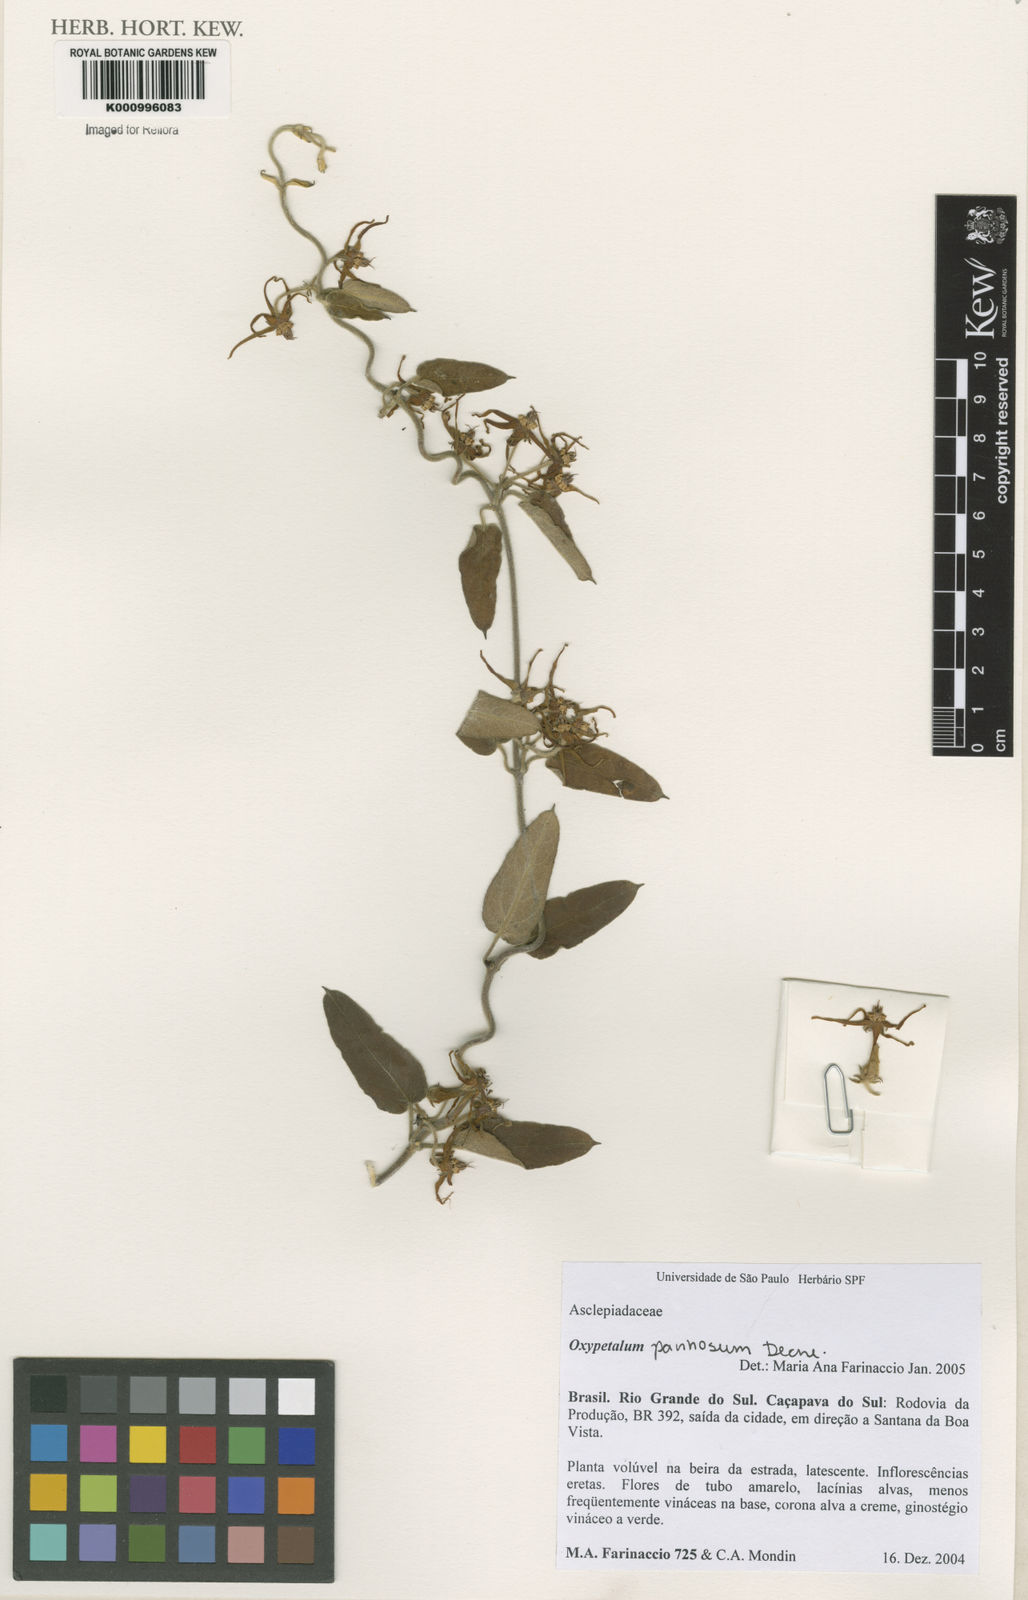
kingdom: Plantae
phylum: Tracheophyta
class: Magnoliopsida
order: Gentianales
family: Apocynaceae
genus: Oxypetalum
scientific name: Oxypetalum pannosum
